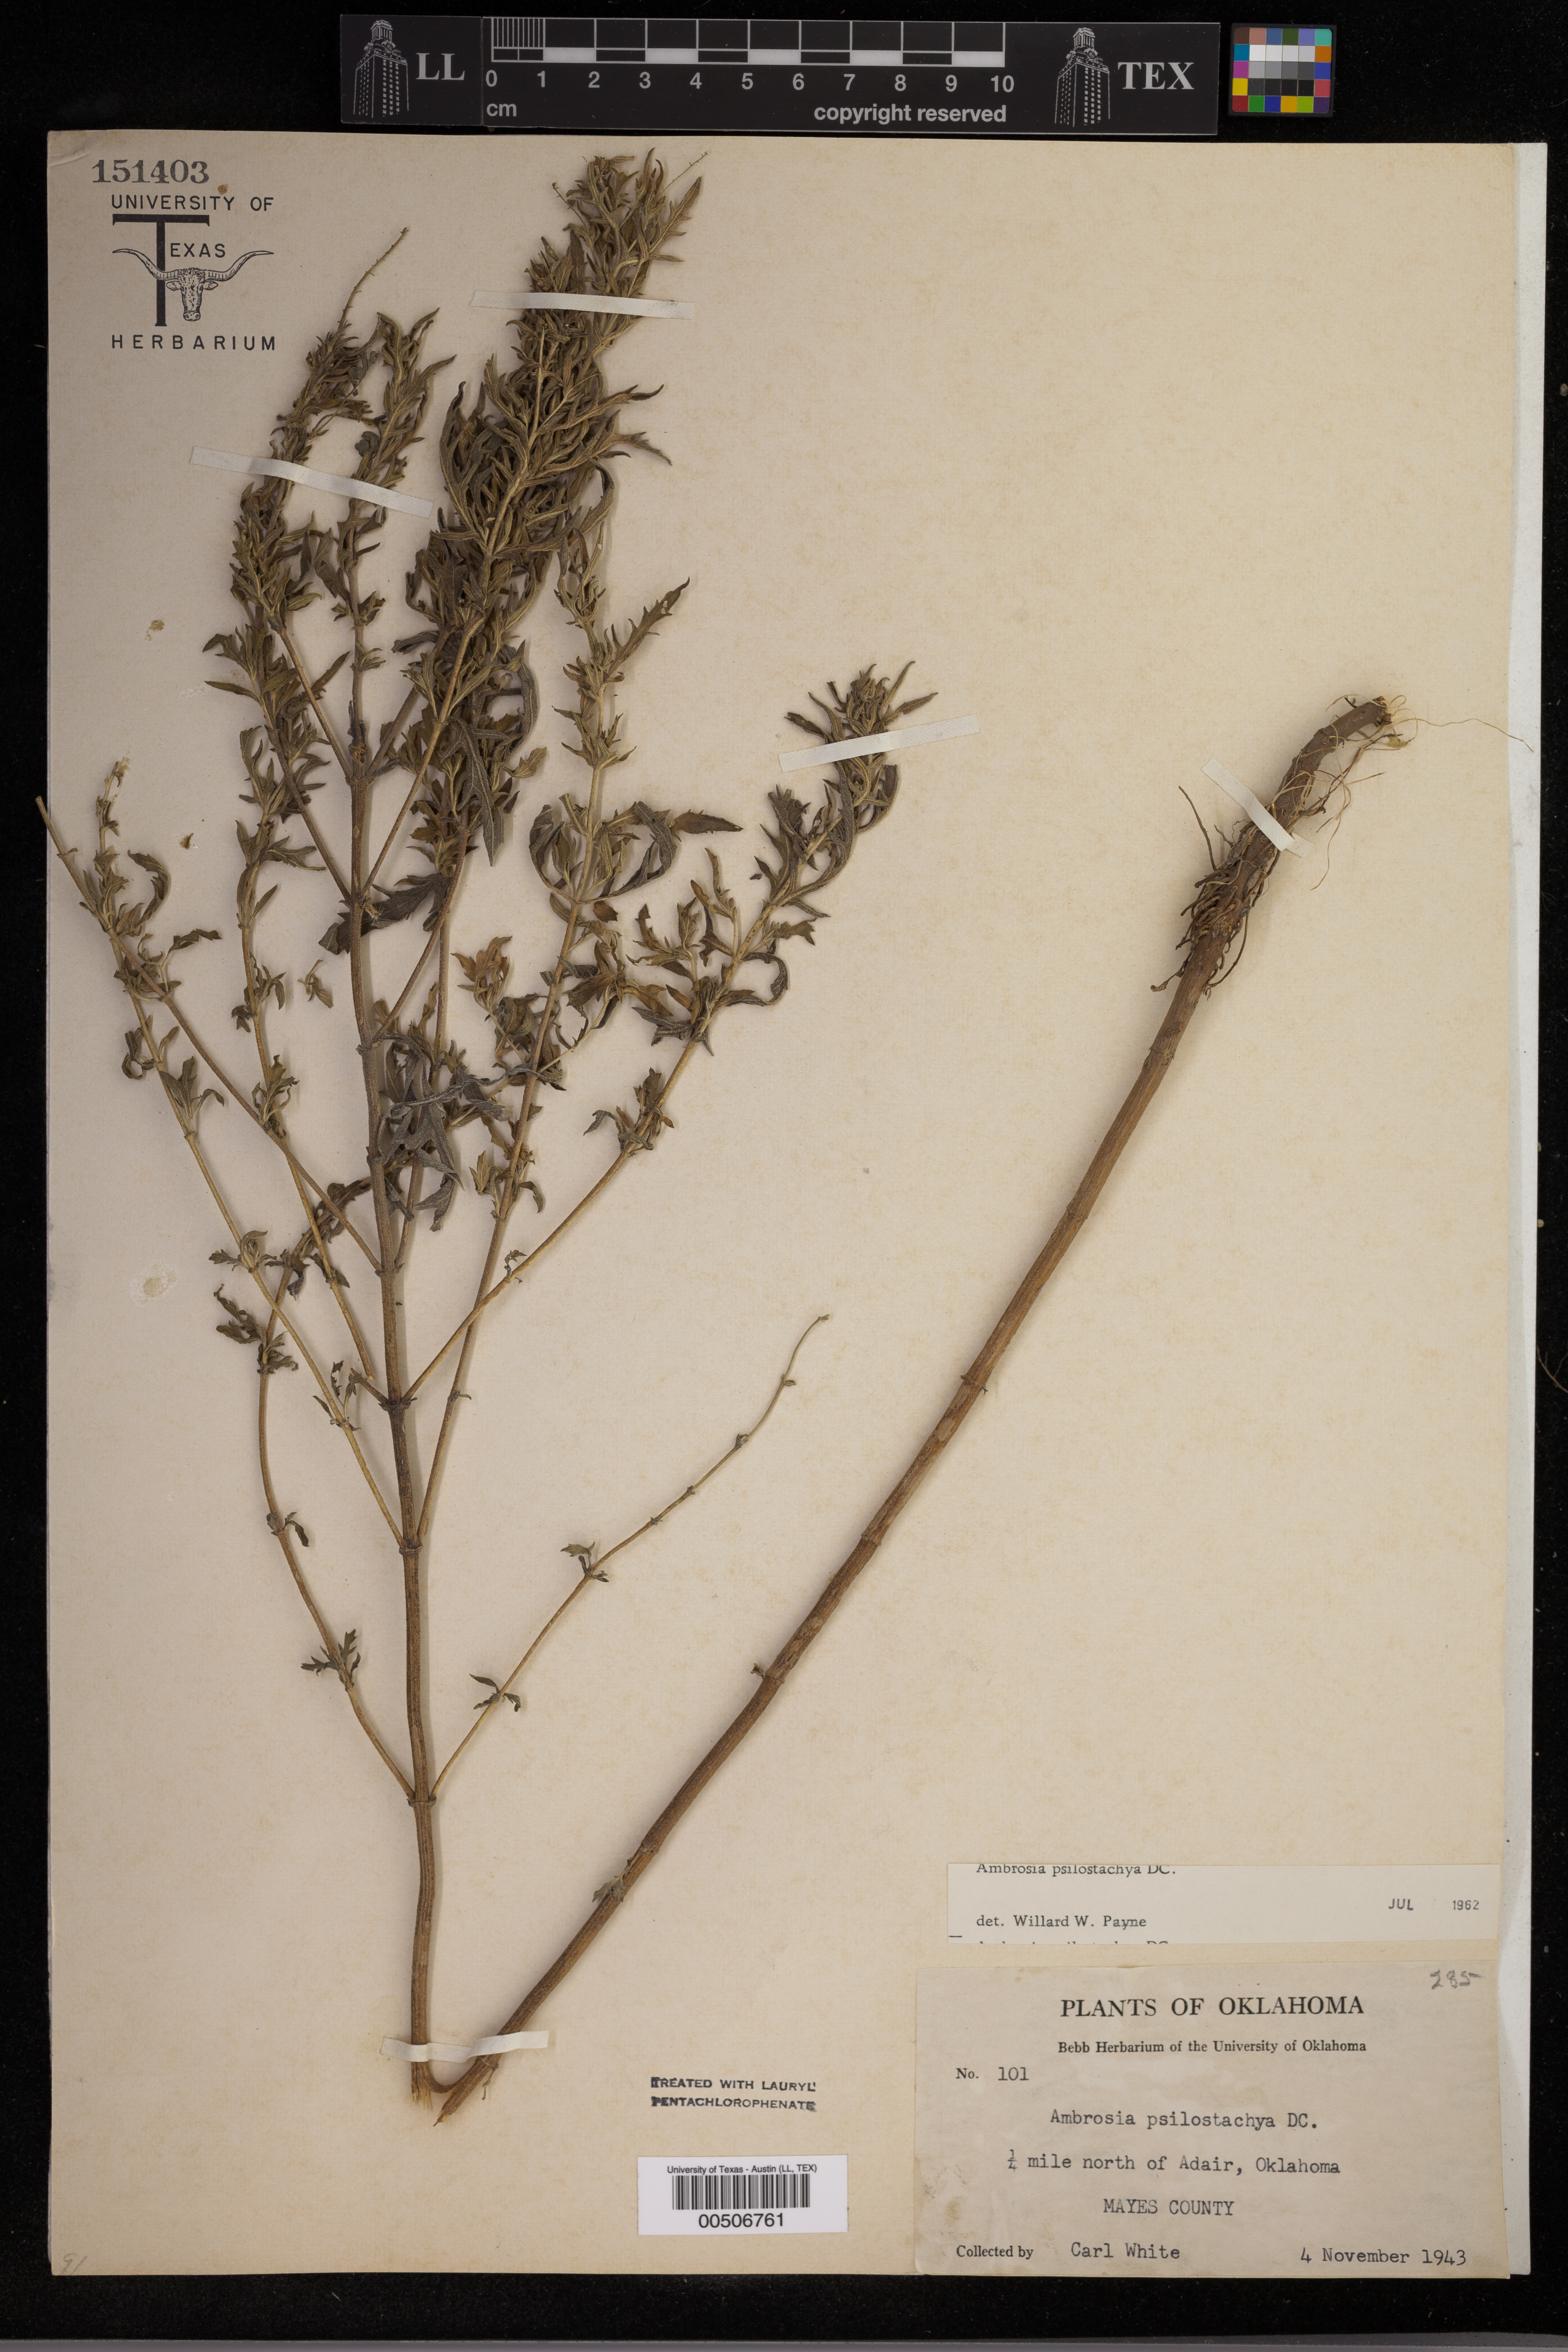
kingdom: Plantae
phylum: Tracheophyta
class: Magnoliopsida
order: Asterales
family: Asteraceae
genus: Ambrosia
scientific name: Ambrosia psilostachya
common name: Perennial ragweed
